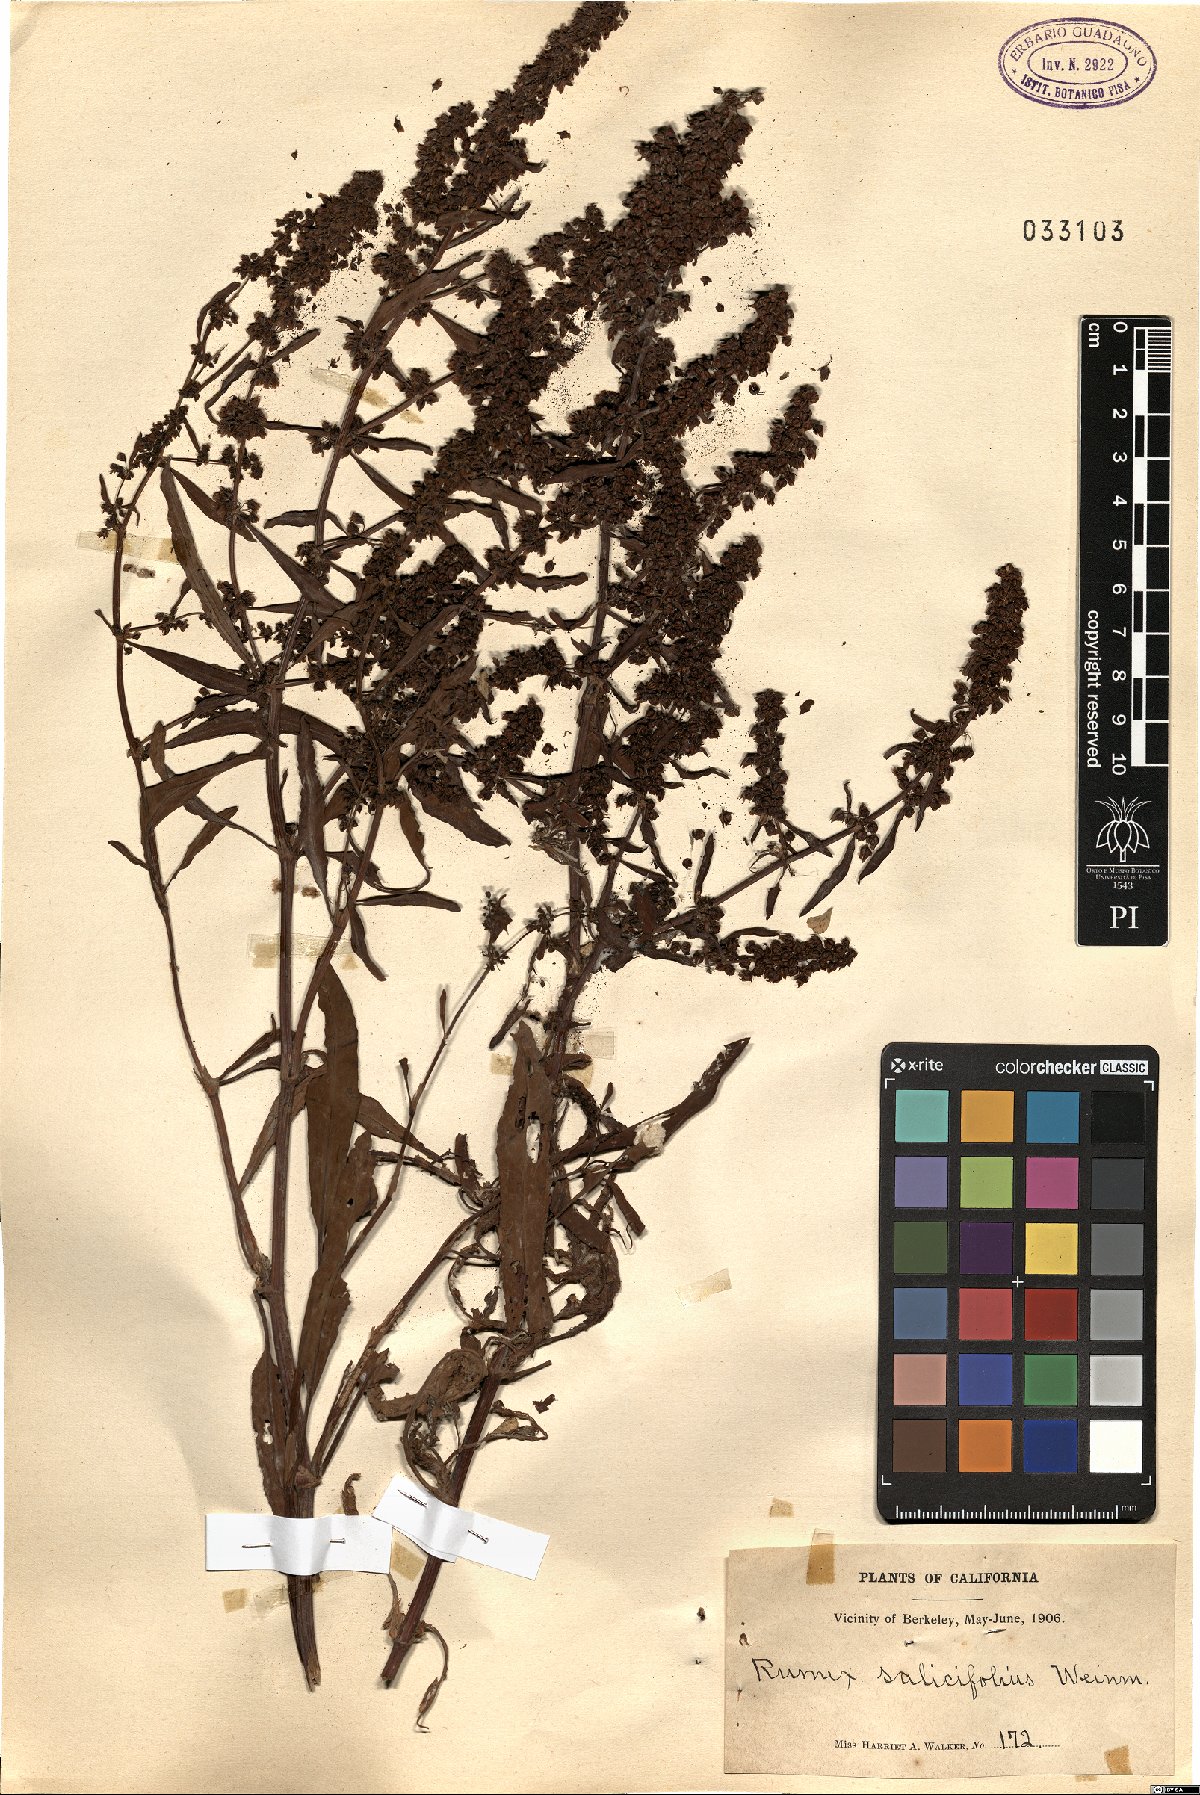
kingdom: Plantae
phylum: Tracheophyta
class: Magnoliopsida
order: Caryophyllales
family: Polygonaceae
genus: Rumex
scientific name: Rumex salicifolius
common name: Willow-leaved dock
